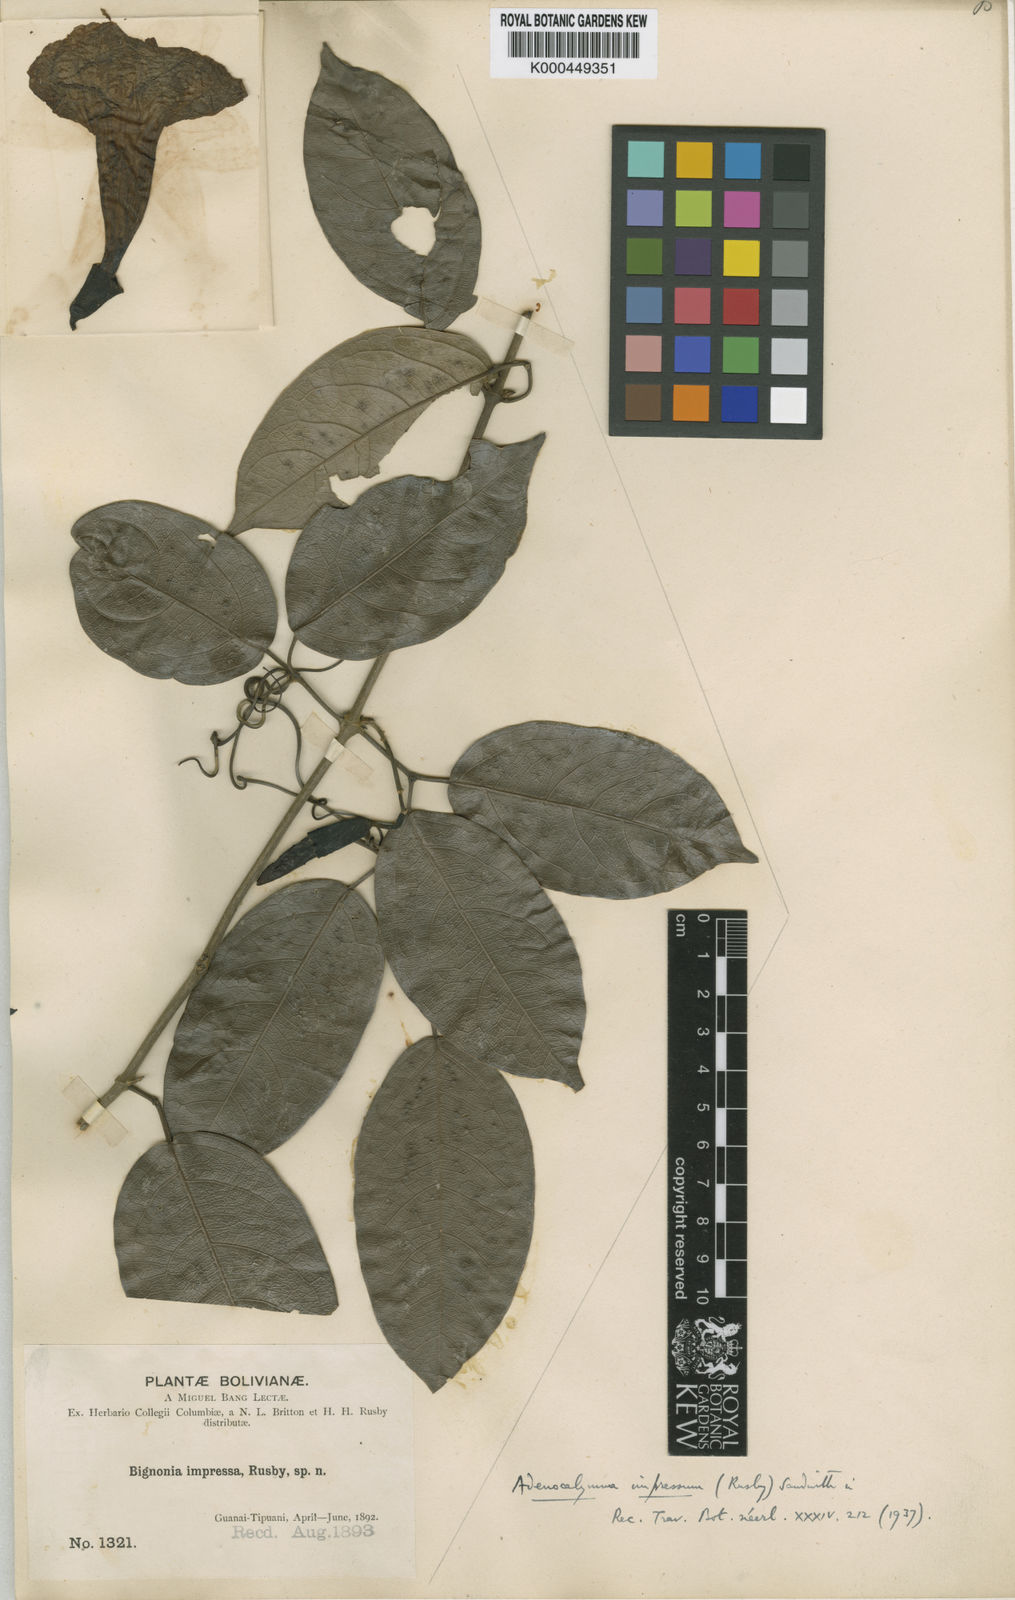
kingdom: Plantae
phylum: Tracheophyta
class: Magnoliopsida
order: Lamiales
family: Bignoniaceae
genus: Adenocalymma
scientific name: Adenocalymma impressum
